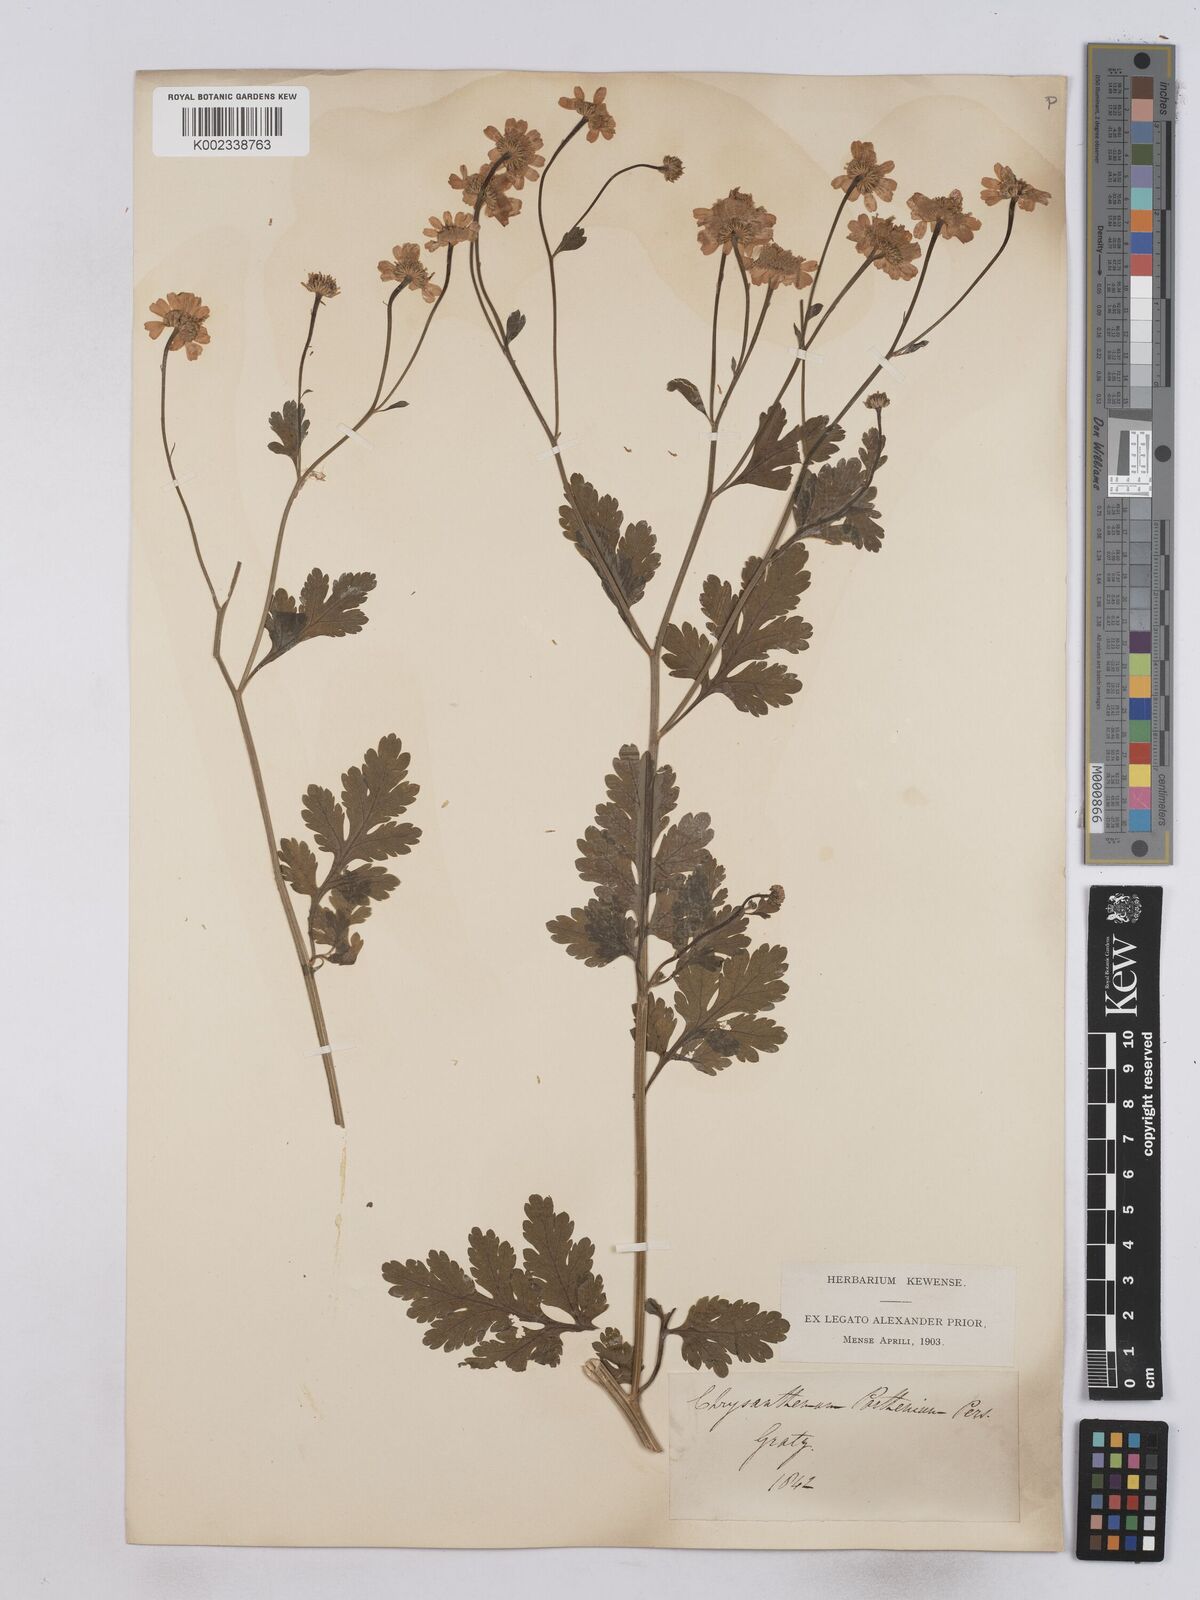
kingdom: Plantae
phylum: Tracheophyta
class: Magnoliopsida
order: Asterales
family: Asteraceae
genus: Tanacetum
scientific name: Tanacetum parthenium
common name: Feverfew
